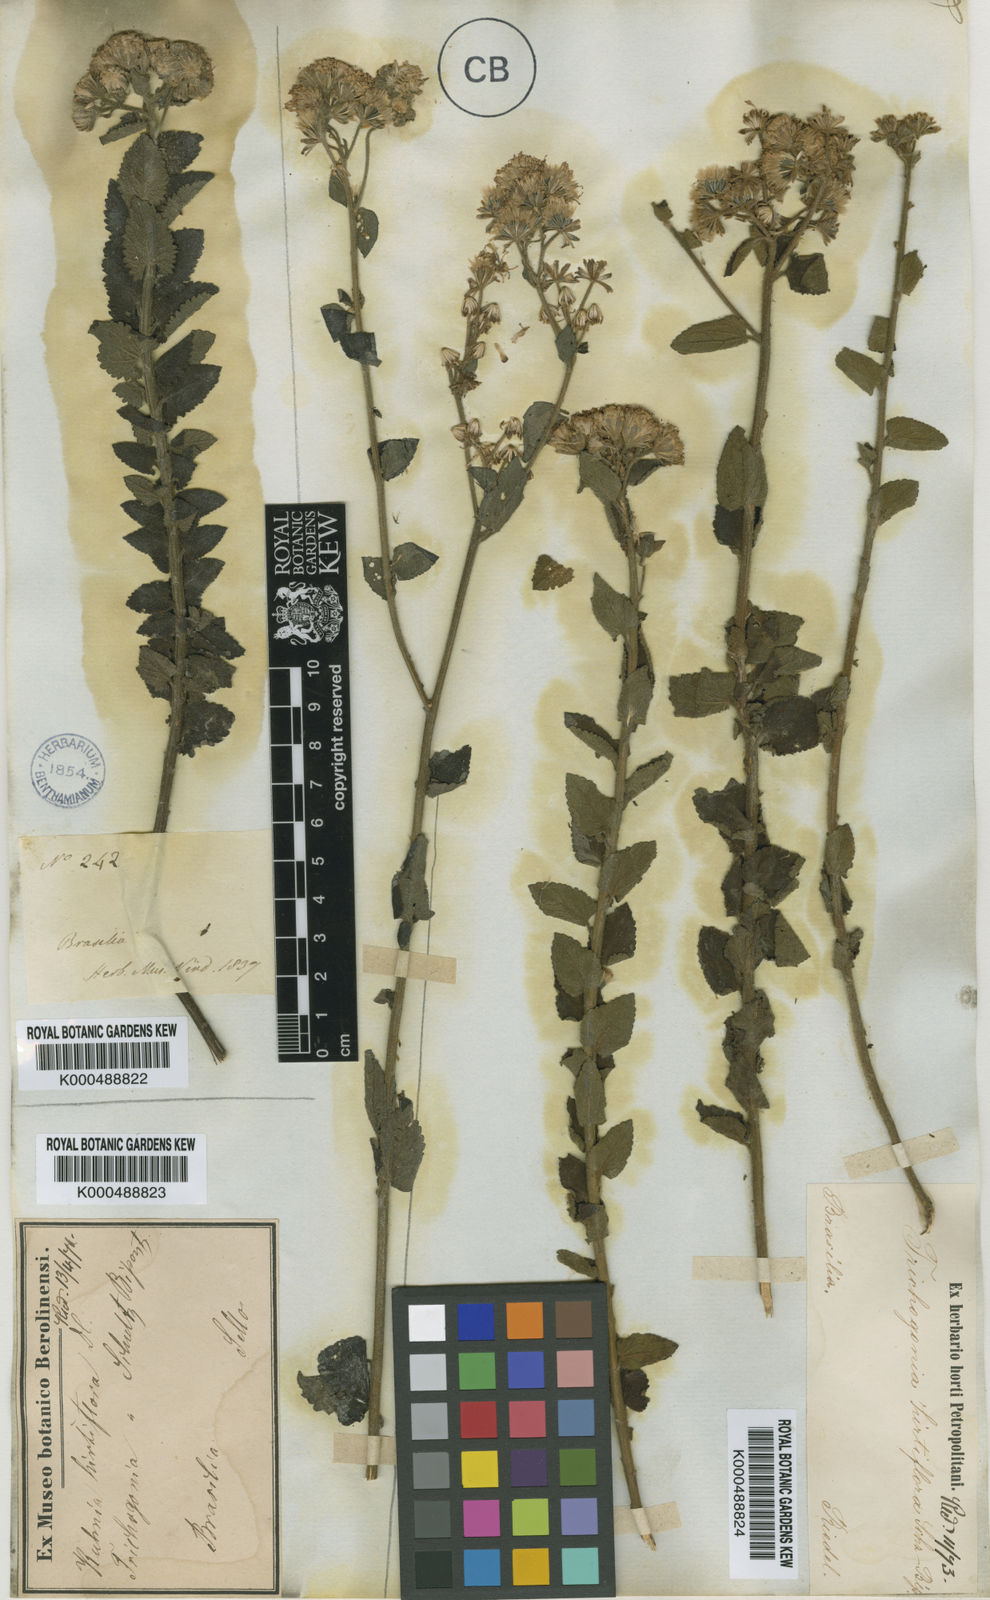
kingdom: Plantae
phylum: Tracheophyta
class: Magnoliopsida
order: Asterales
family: Asteraceae
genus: Trichogonia
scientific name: Trichogonia hirtiflora
